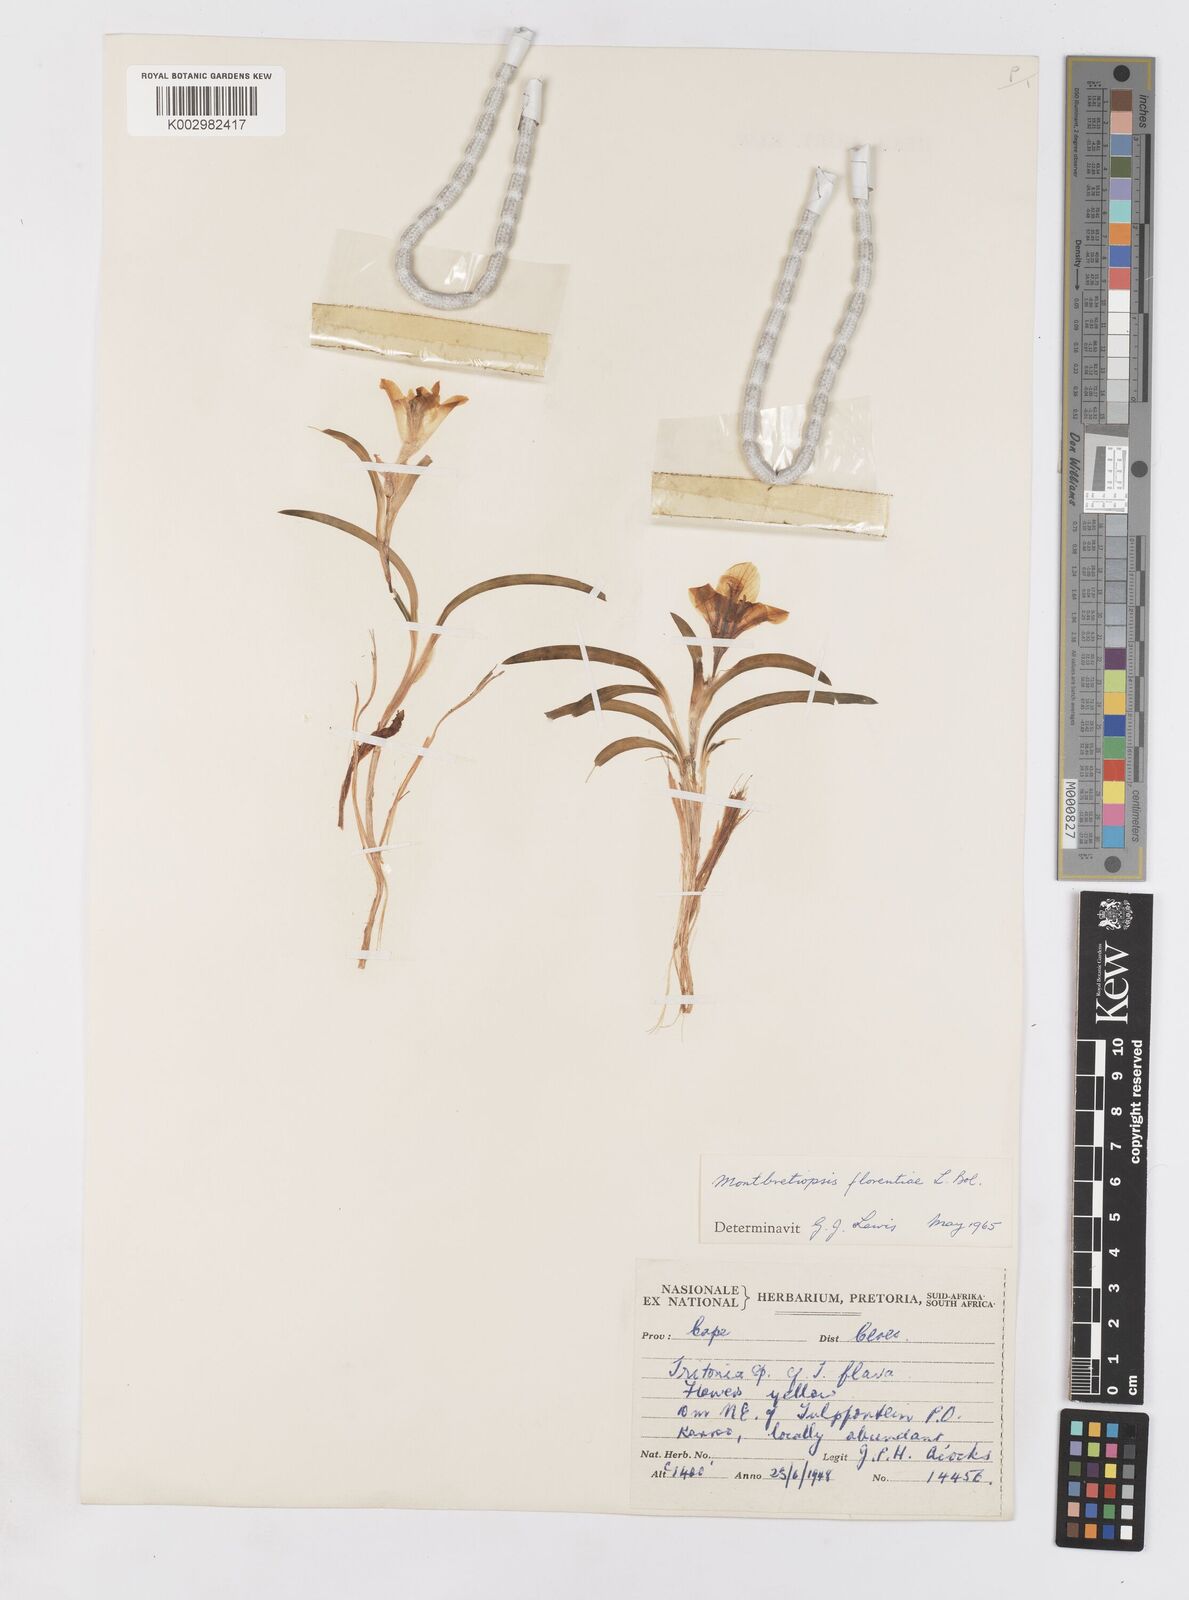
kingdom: Plantae
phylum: Tracheophyta
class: Liliopsida
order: Asparagales
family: Iridaceae
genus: Tritonia
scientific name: Tritonia florentiae
